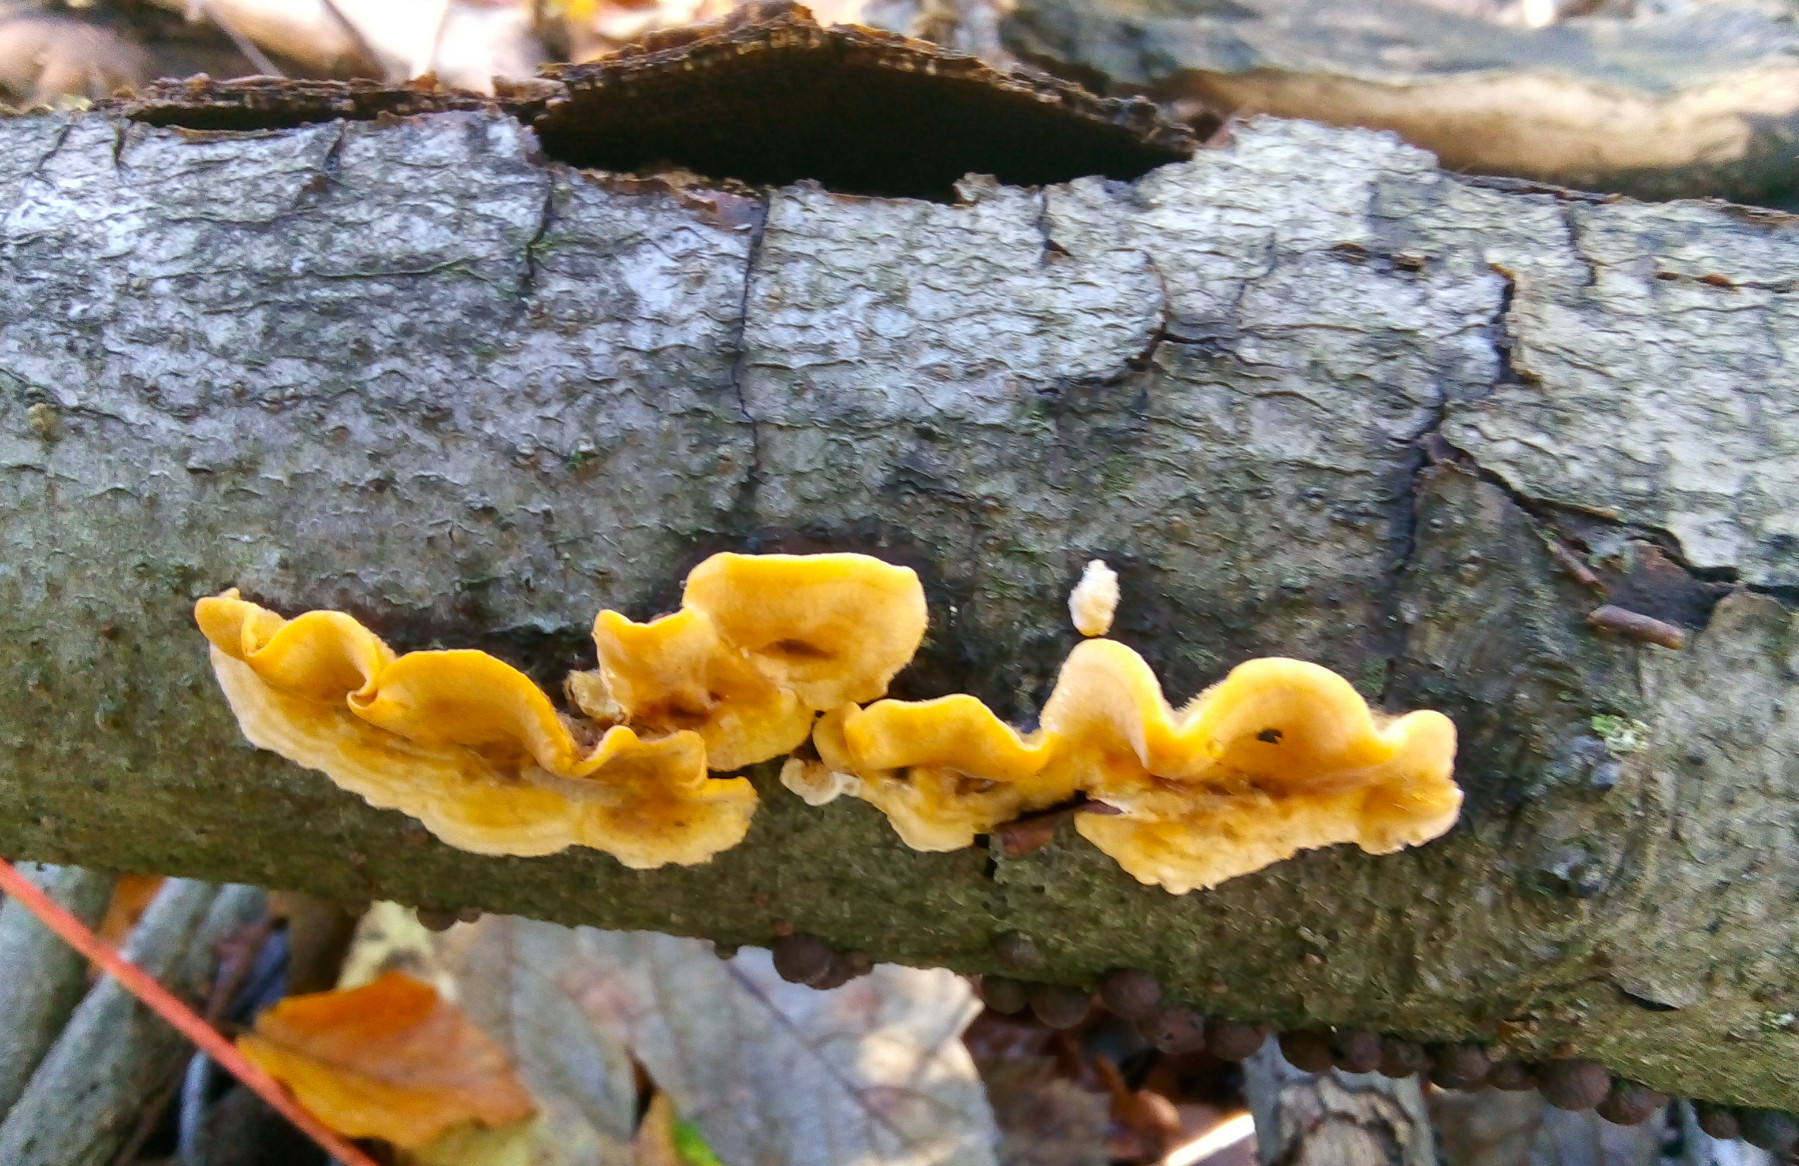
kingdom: Fungi
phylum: Basidiomycota
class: Agaricomycetes
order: Russulales
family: Stereaceae
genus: Stereum
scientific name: Stereum hirsutum
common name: håret lædersvamp
